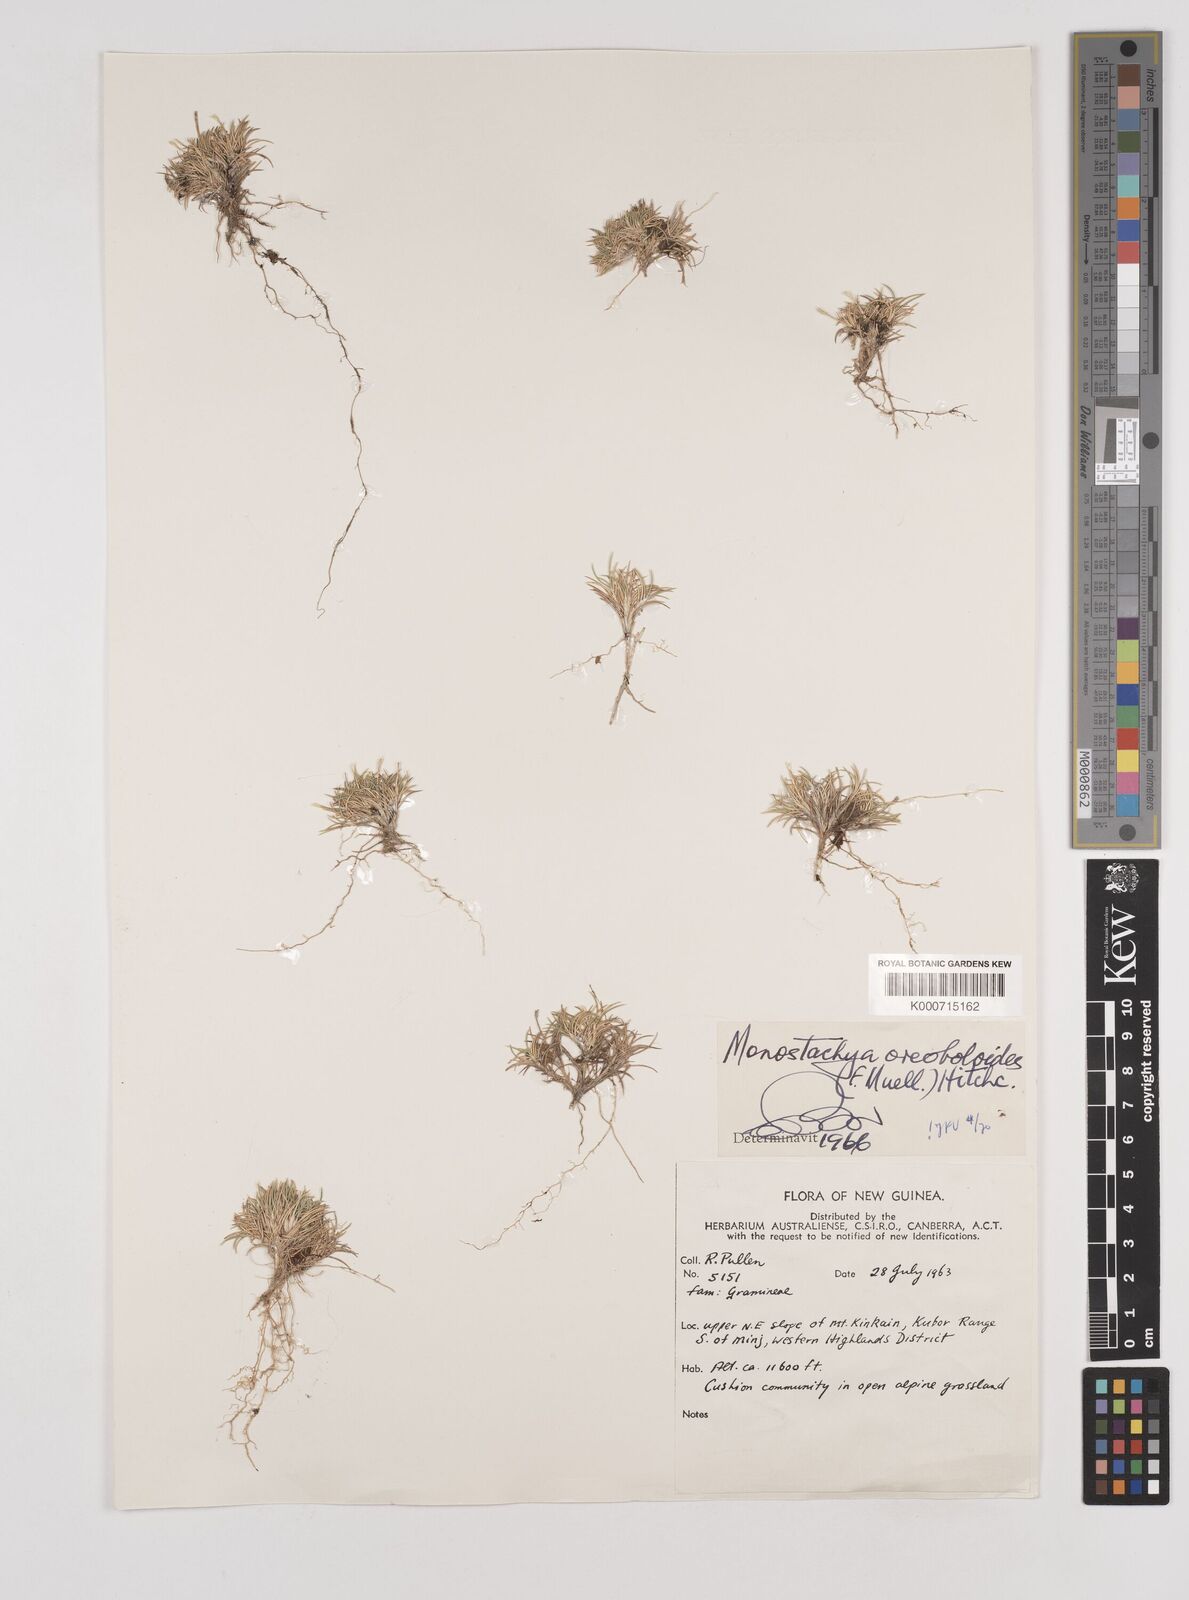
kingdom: Plantae
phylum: Tracheophyta
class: Liliopsida
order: Poales
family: Poaceae
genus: Rytidosperma
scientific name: Rytidosperma oreoboloides
